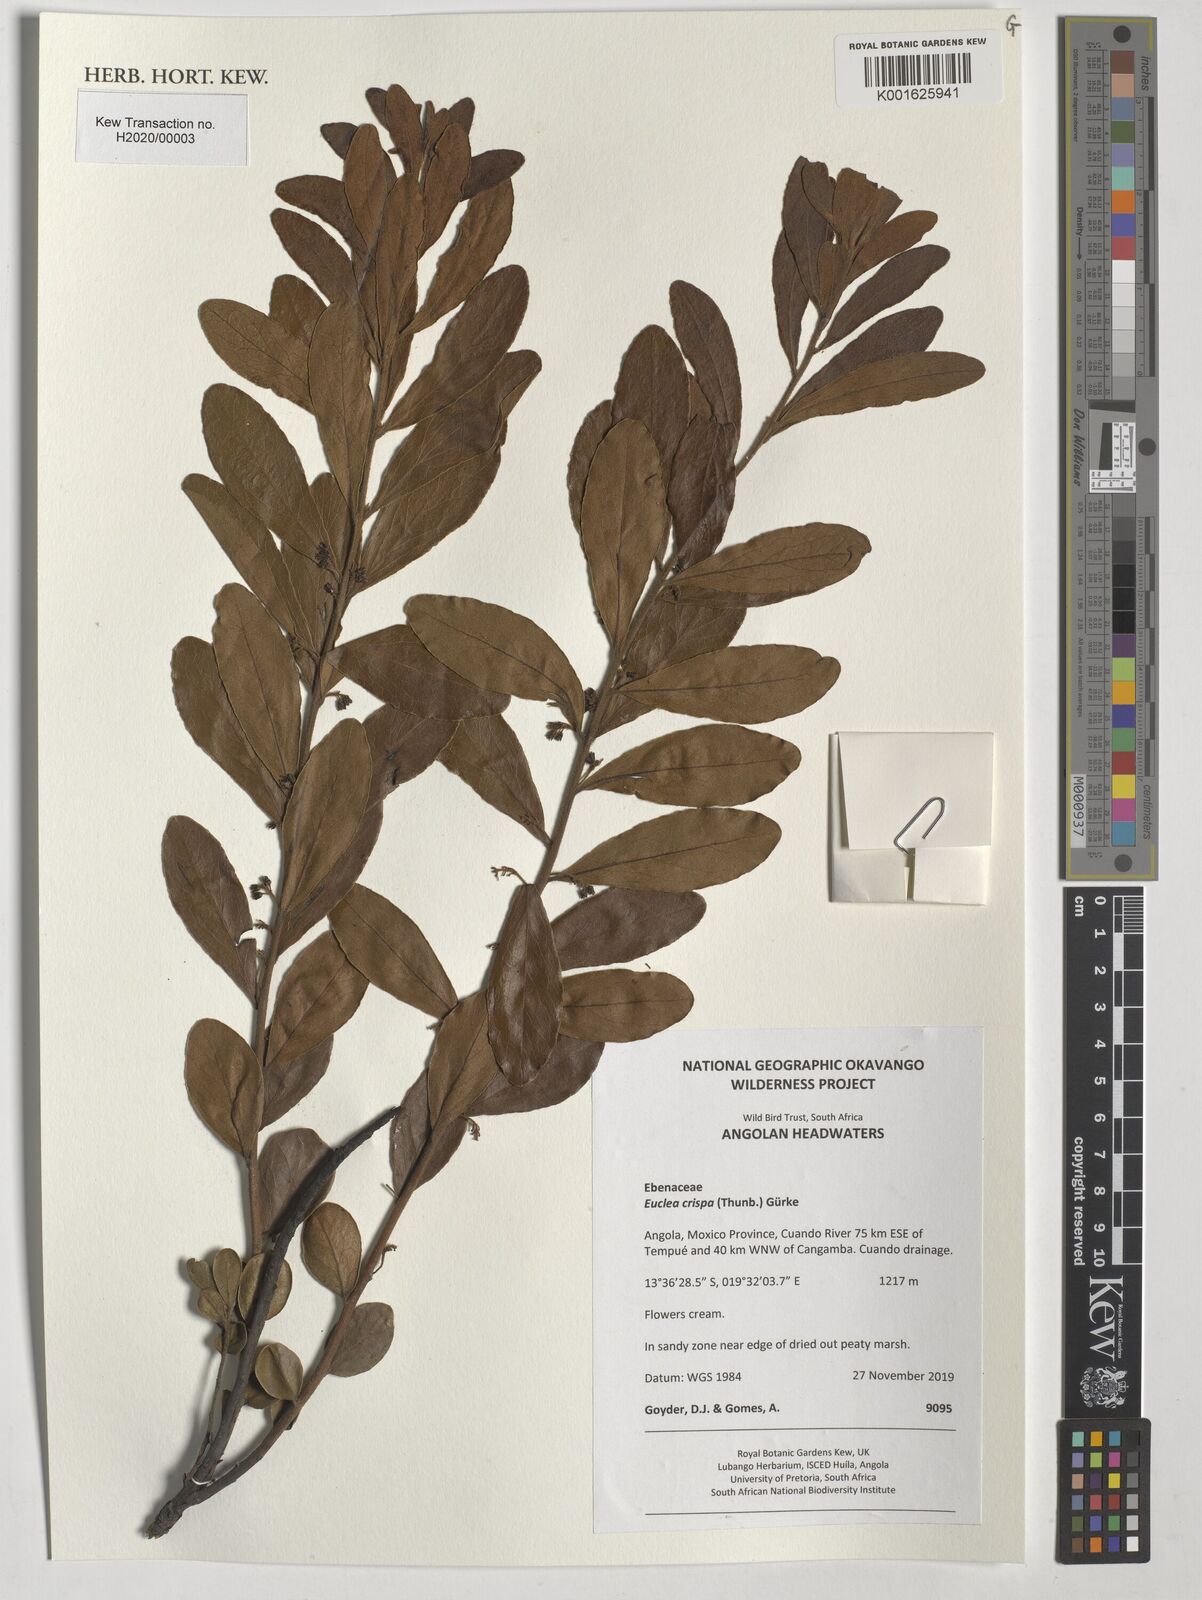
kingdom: Plantae
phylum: Tracheophyta
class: Magnoliopsida
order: Ericales
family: Ebenaceae
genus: Euclea
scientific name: Euclea crispa
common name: Blue guarri
